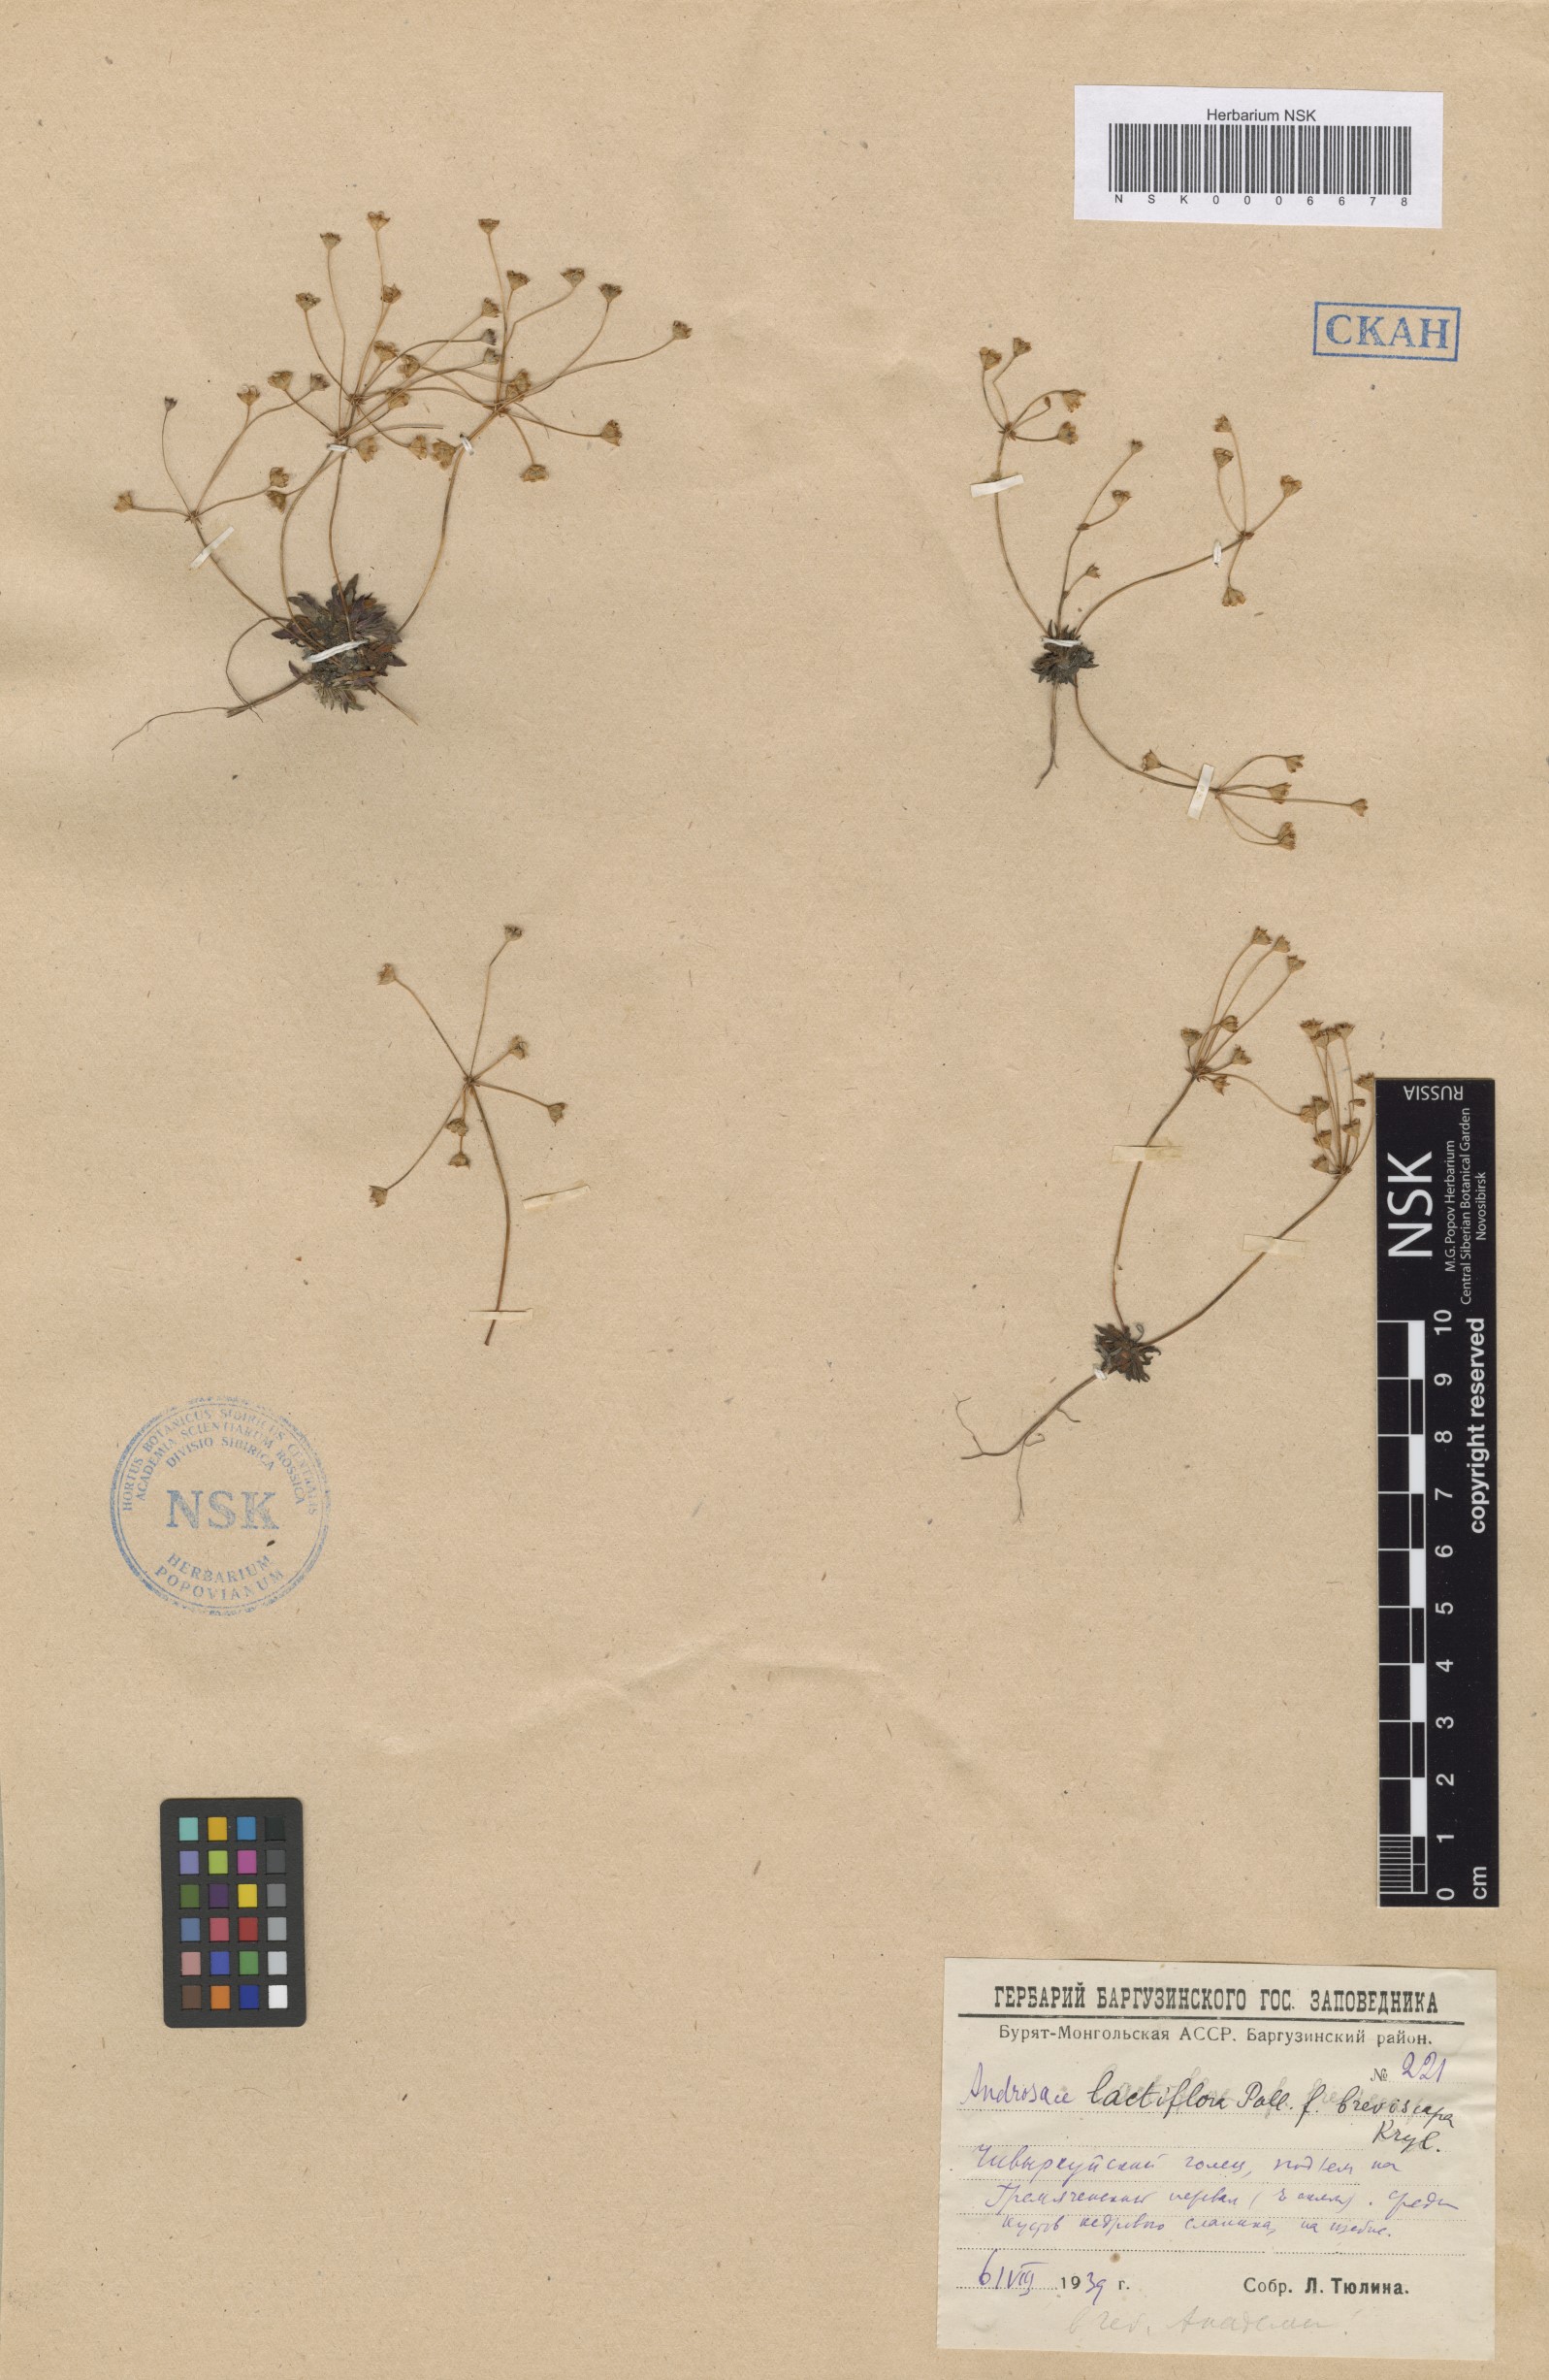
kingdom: Plantae
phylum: Tracheophyta
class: Magnoliopsida
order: Ericales
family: Primulaceae
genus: Androsace
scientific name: Androsace lactiflora
